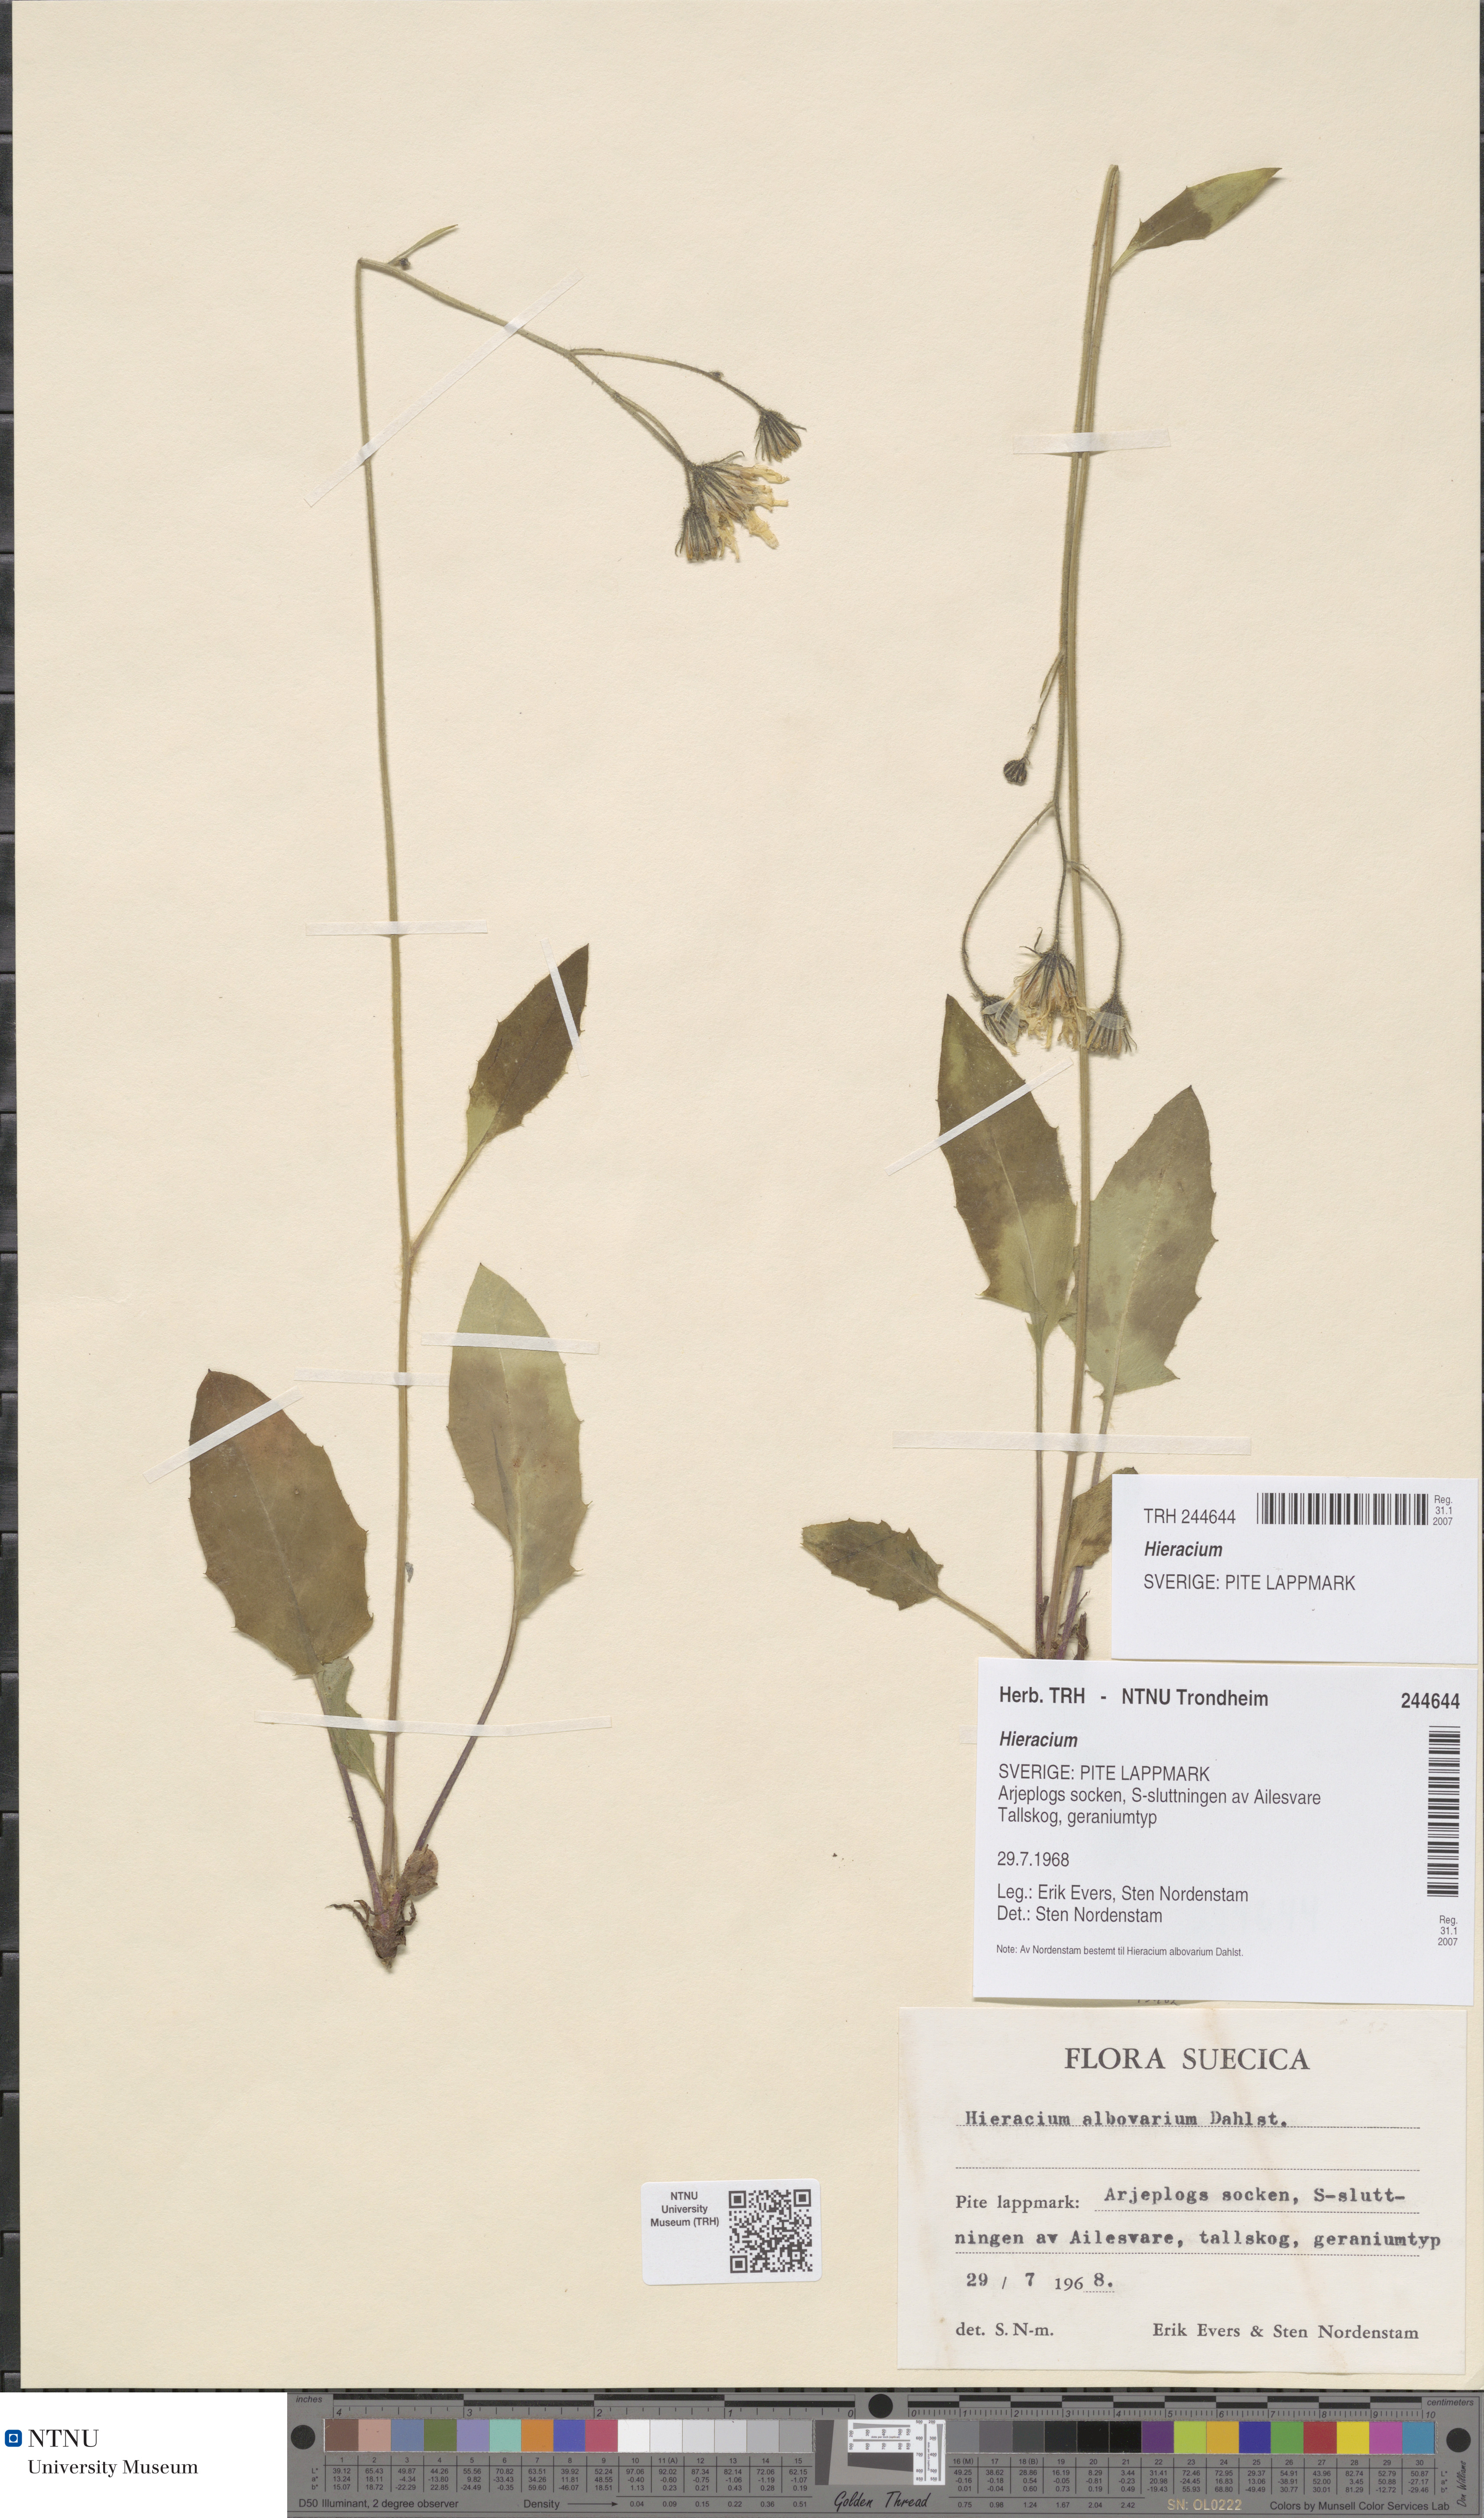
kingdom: Plantae
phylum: Tracheophyta
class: Magnoliopsida
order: Asterales
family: Asteraceae
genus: Hieracium
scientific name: Hieracium
